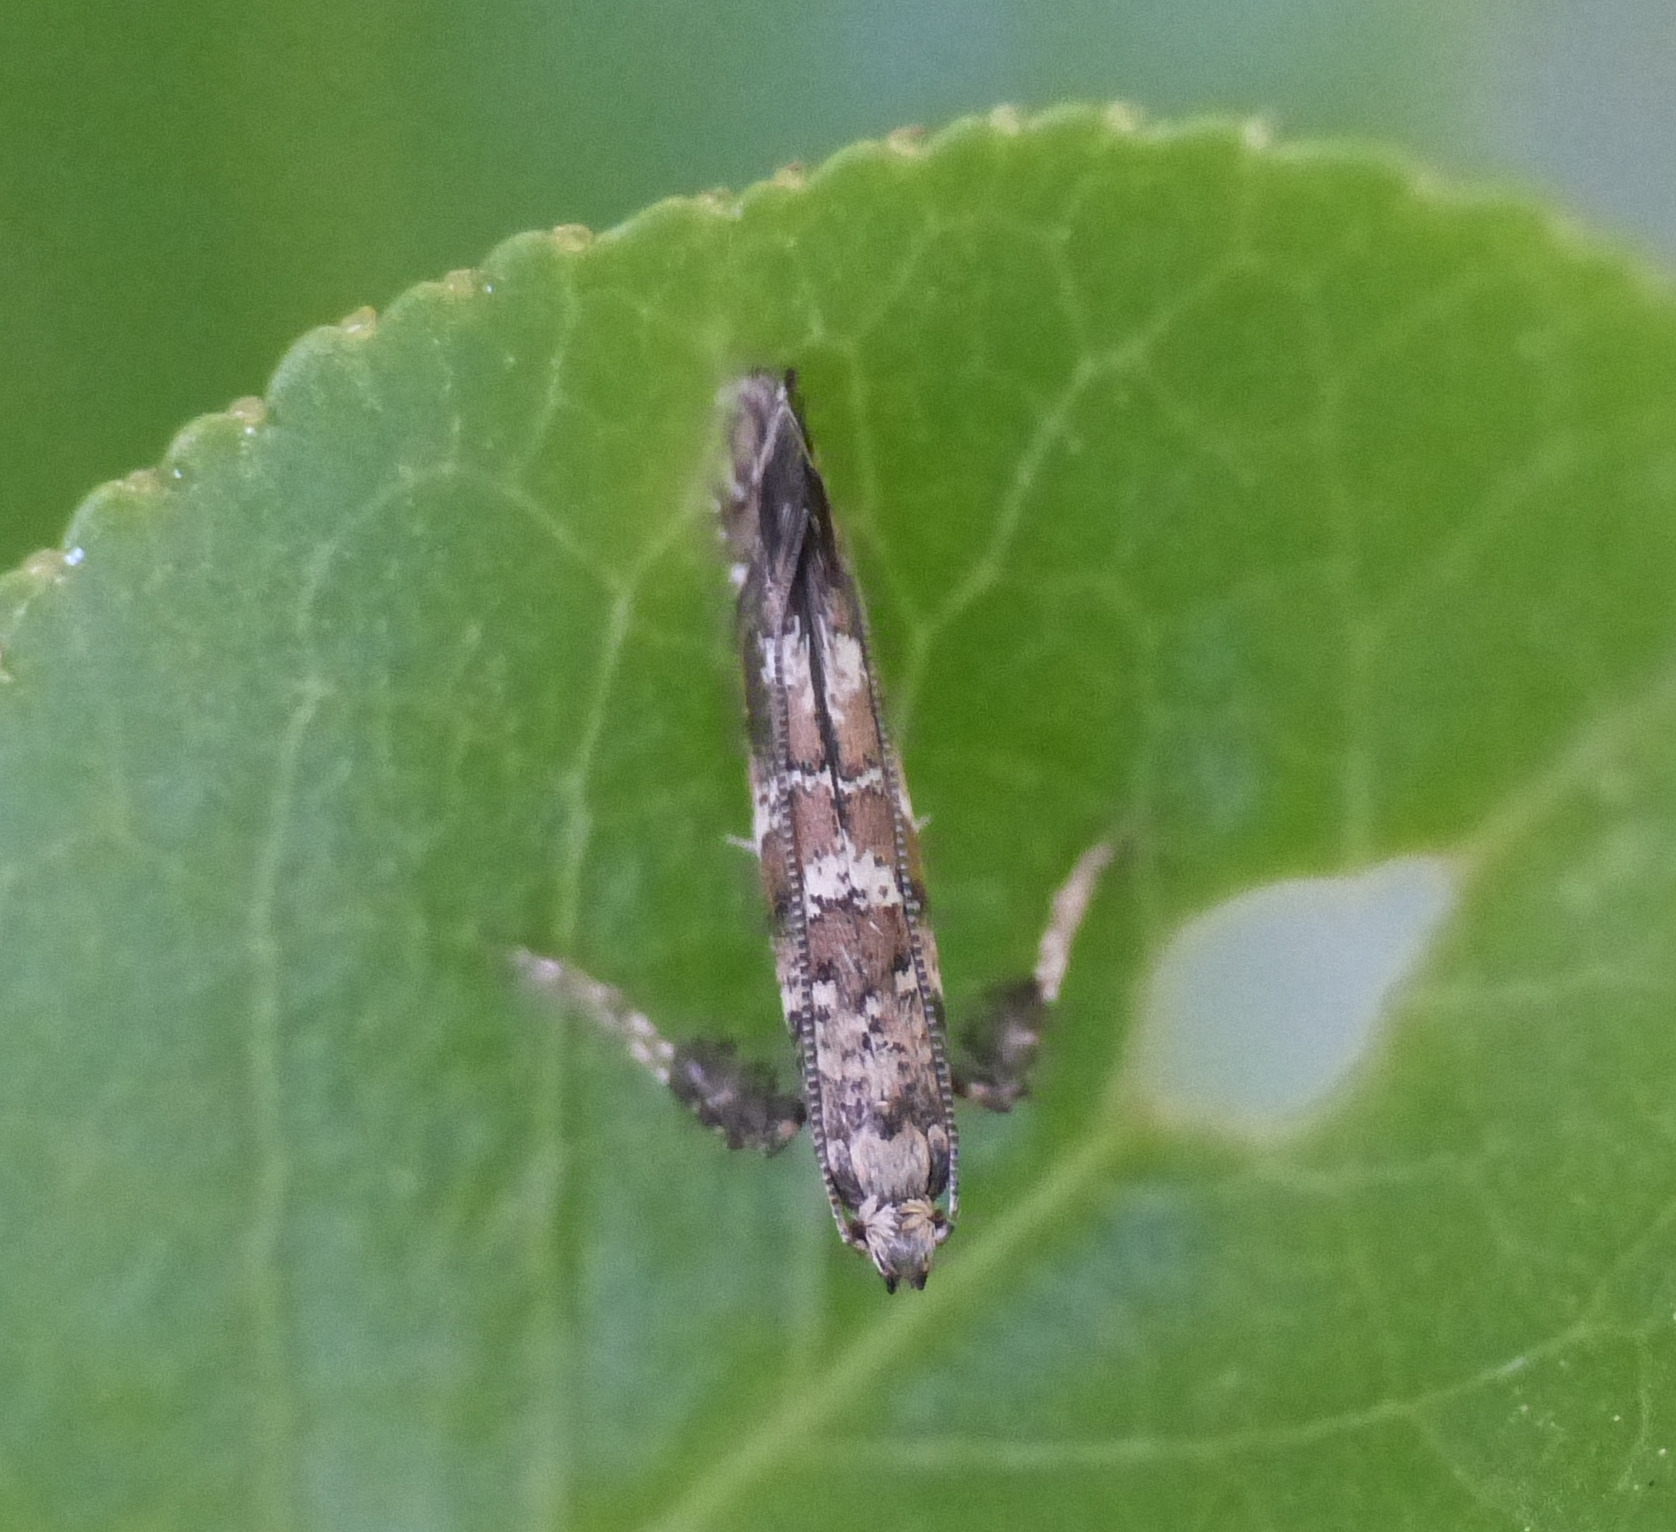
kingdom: Animalia
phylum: Arthropoda
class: Insecta
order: Lepidoptera
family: Gracillariidae
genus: Gracillaria
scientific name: Gracillaria syringella
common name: Syrenmøl
